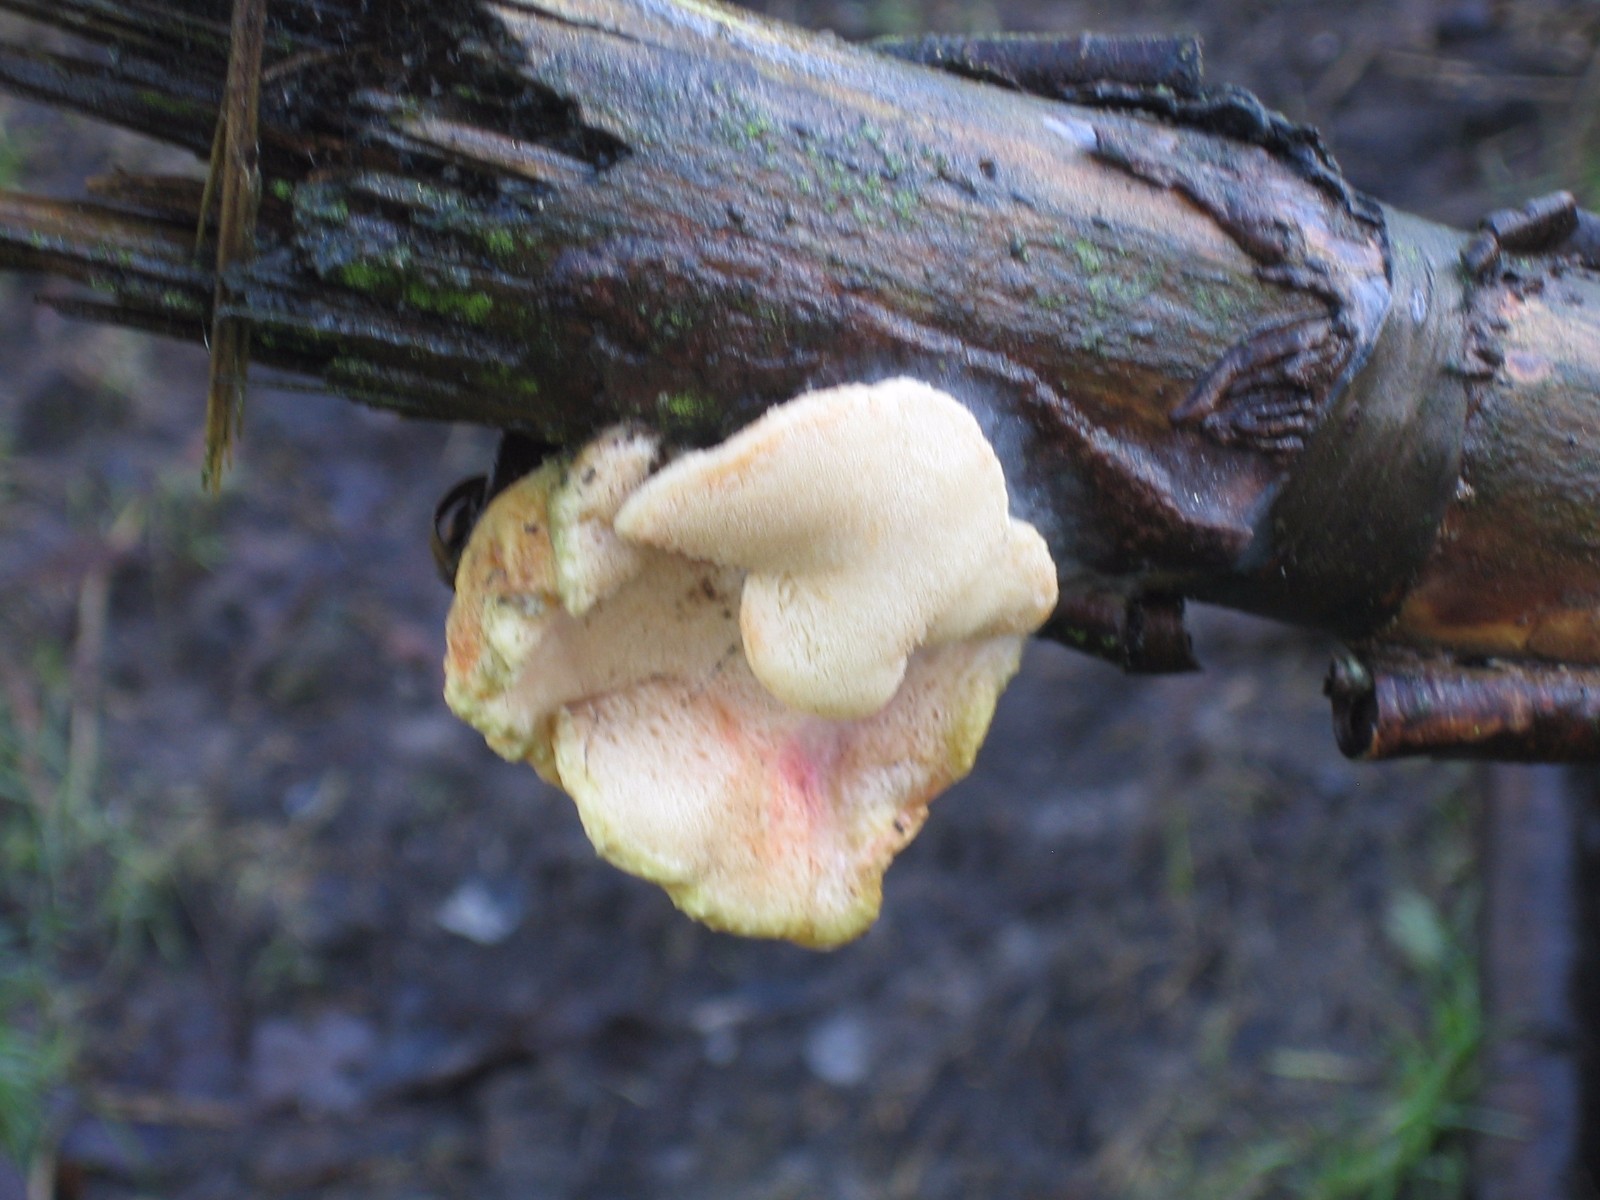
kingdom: Fungi
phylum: Basidiomycota
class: Agaricomycetes
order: Polyporales
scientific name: Polyporales
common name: poresvampordenen
